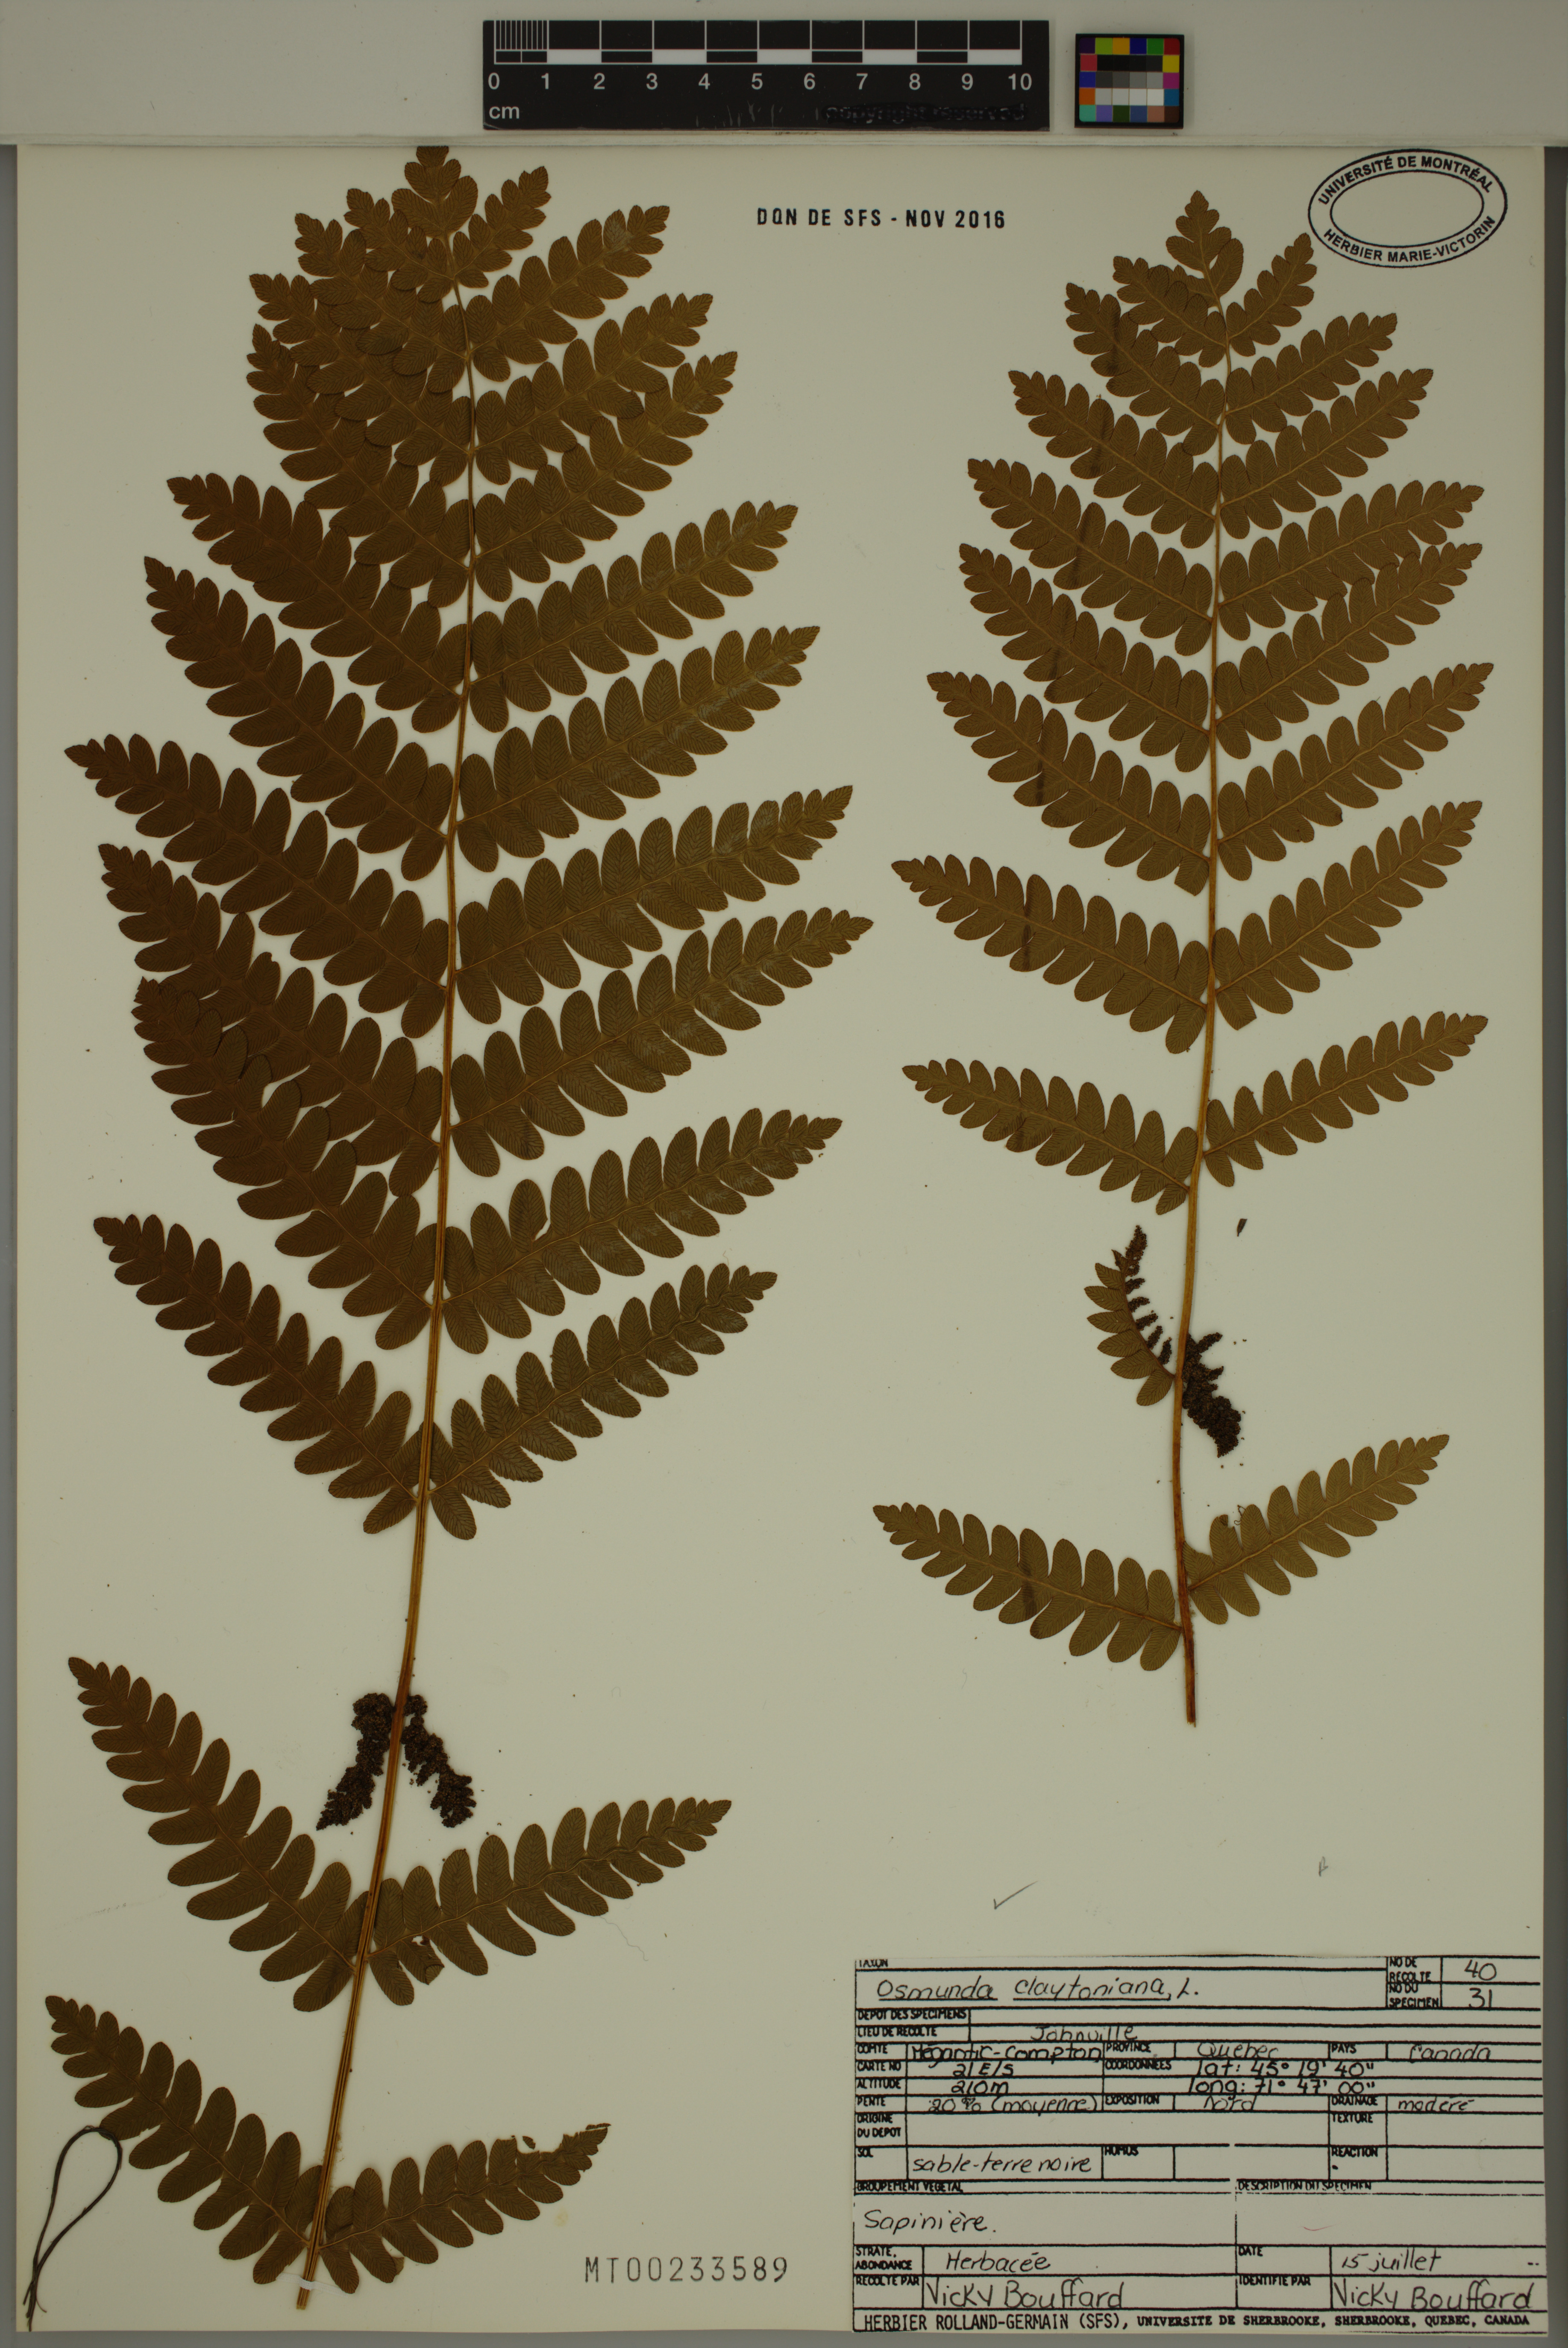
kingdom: Plantae
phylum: Tracheophyta
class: Polypodiopsida
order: Osmundales
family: Osmundaceae
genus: Claytosmunda
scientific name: Claytosmunda claytoniana
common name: Clayton's fern
